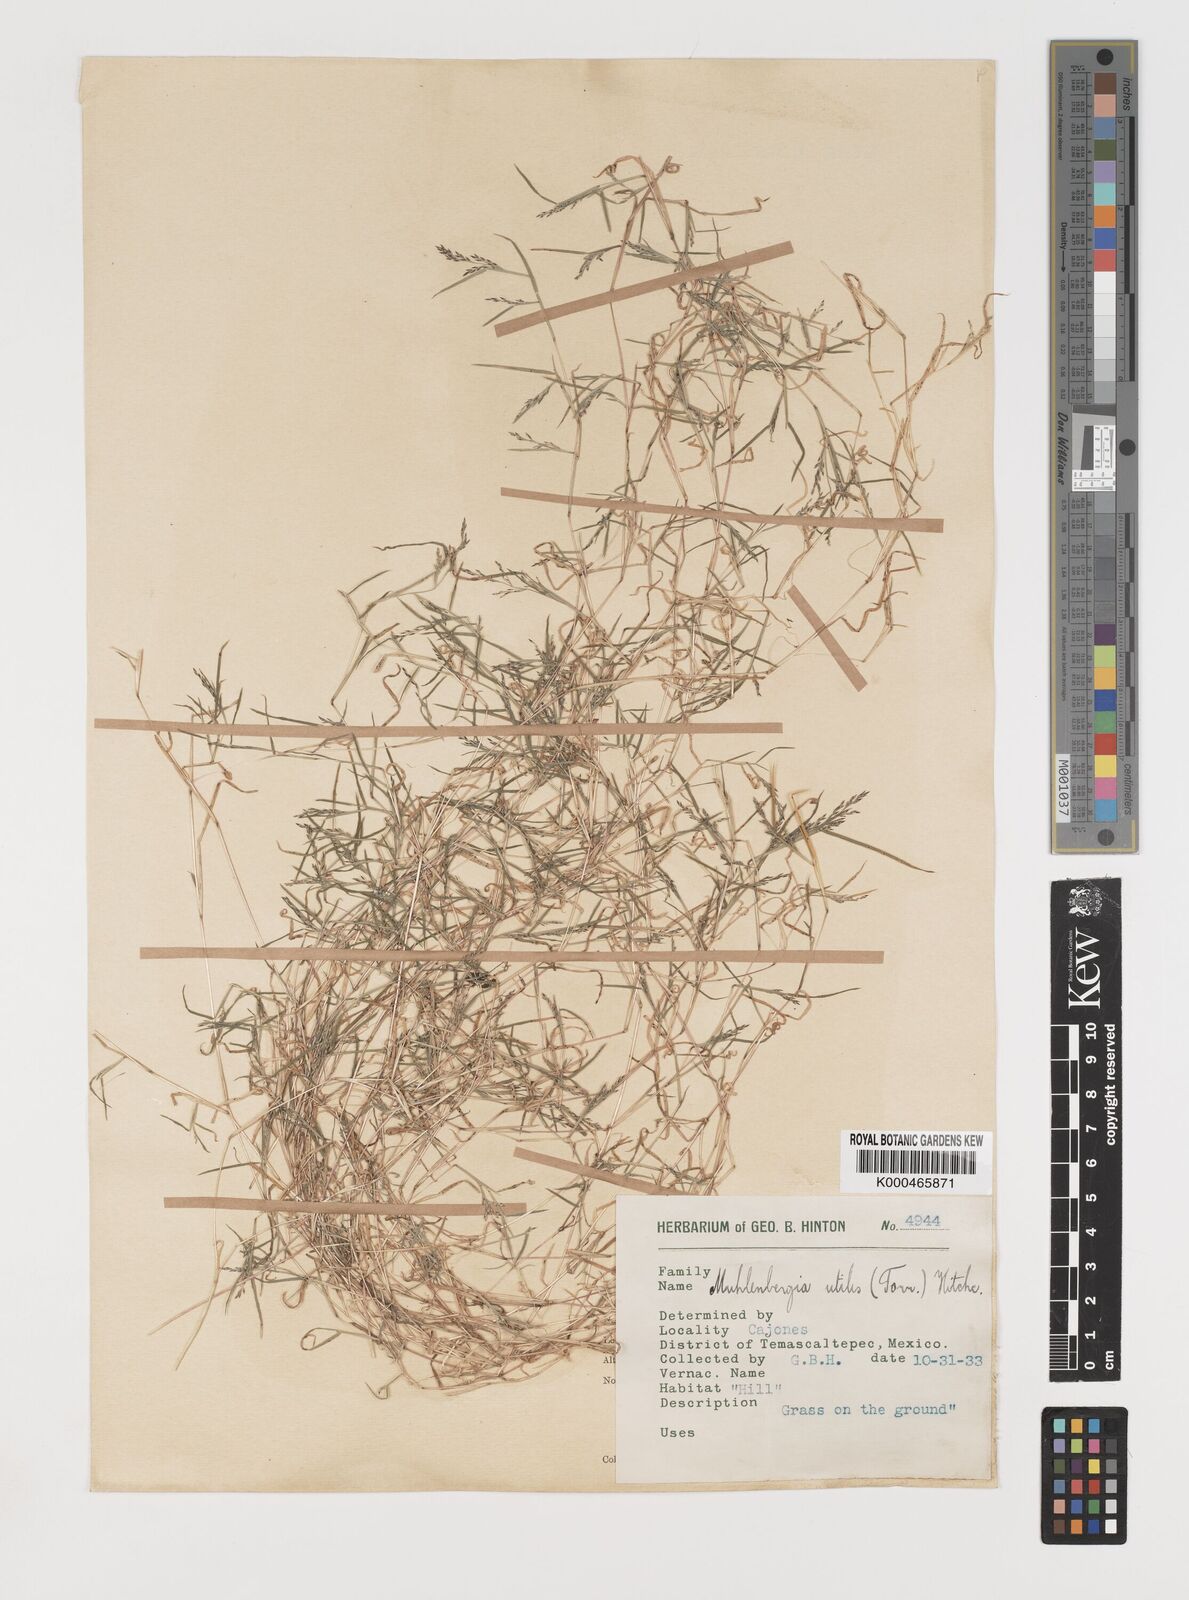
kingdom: Plantae
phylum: Tracheophyta
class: Liliopsida
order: Poales
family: Poaceae
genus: Muhlenbergia
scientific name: Muhlenbergia utilis
